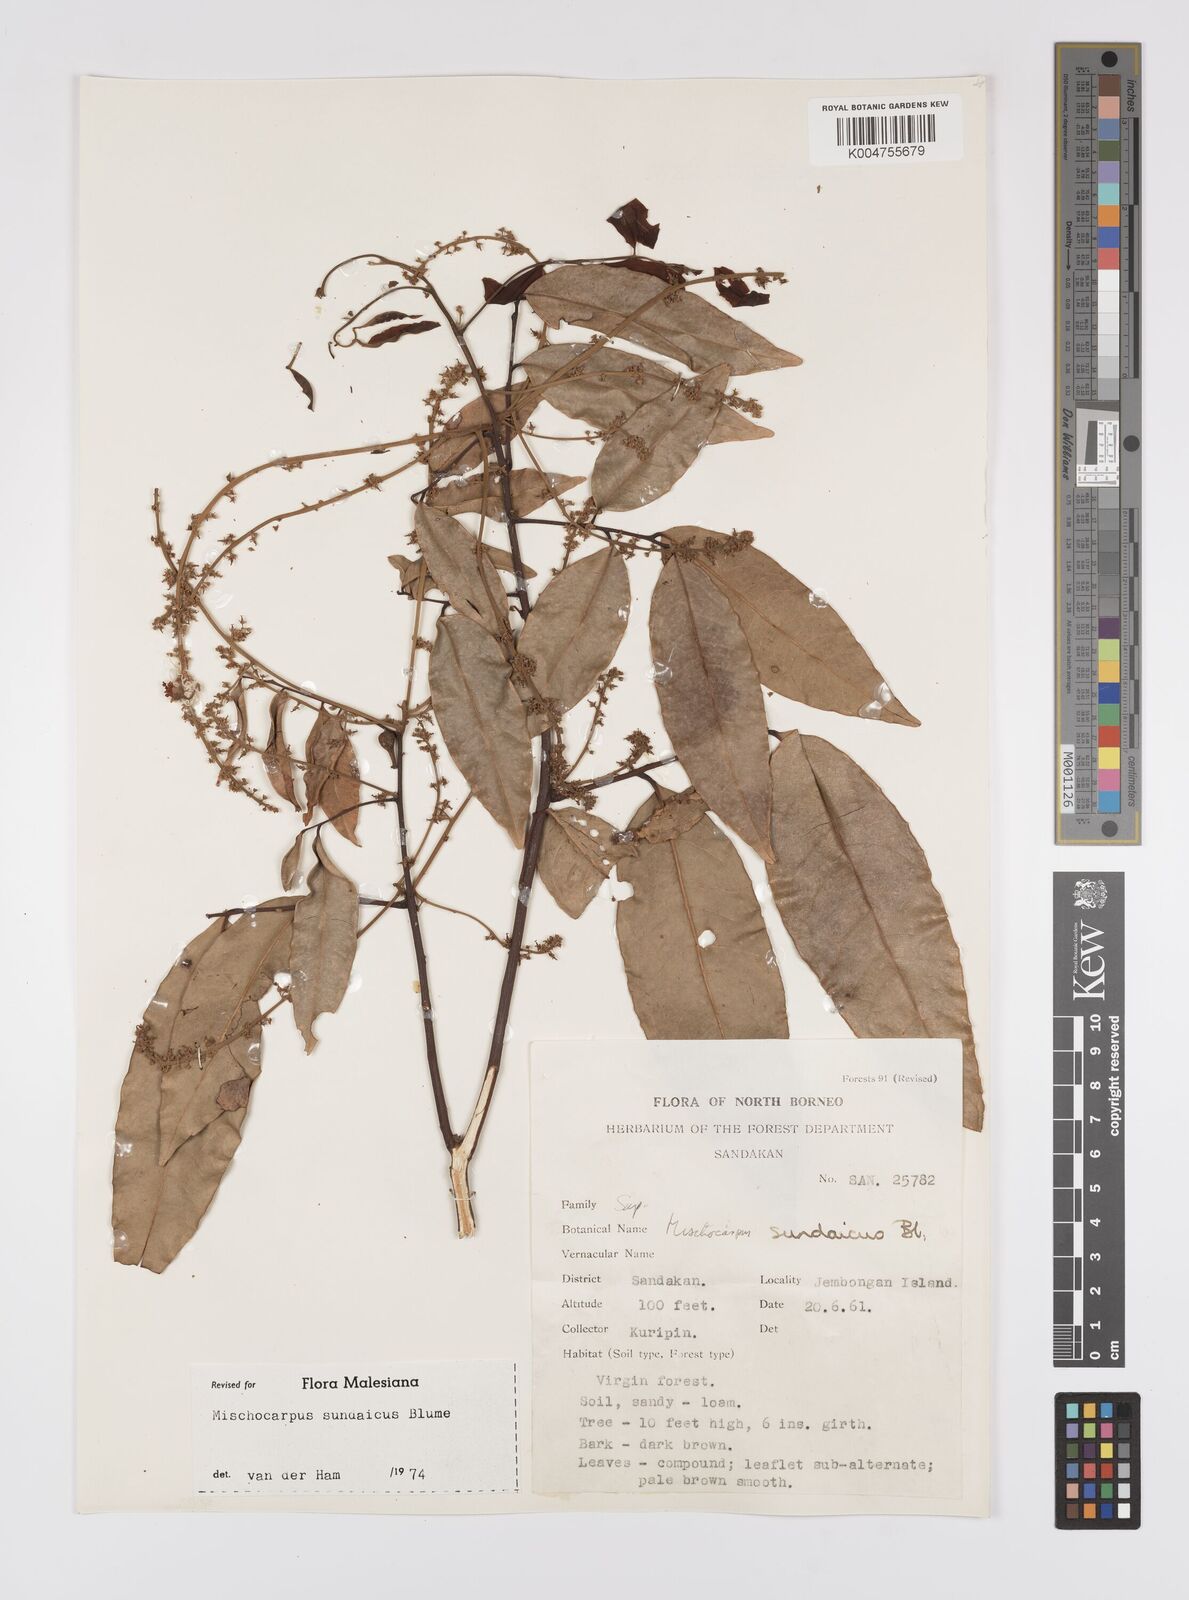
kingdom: Plantae
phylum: Tracheophyta
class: Magnoliopsida
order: Sapindales
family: Sapindaceae
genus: Mischocarpus
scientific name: Mischocarpus sundaicus
